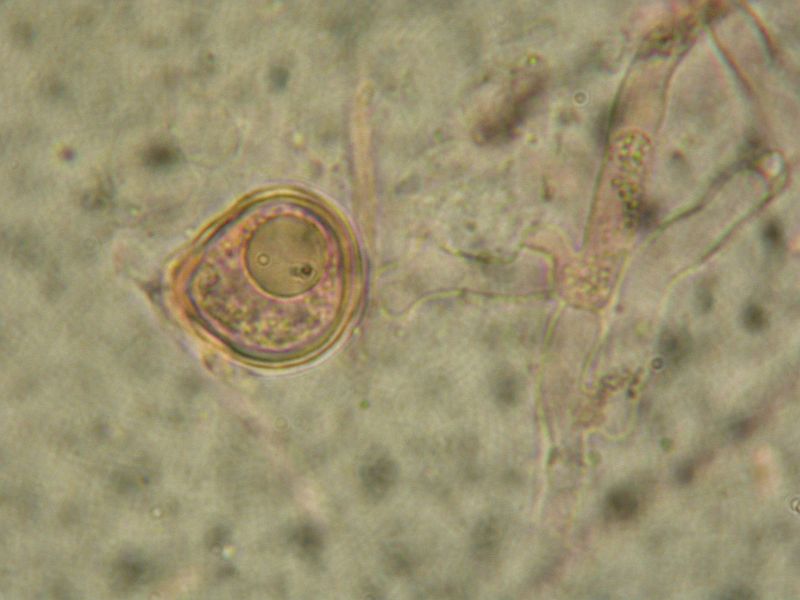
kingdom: Fungi
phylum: Basidiomycota
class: Agaricomycetes
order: Cantharellales
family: Hydnaceae
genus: Sistotrema
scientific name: Sistotrema brinkmannii
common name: bønnesporet kroneskorpe
